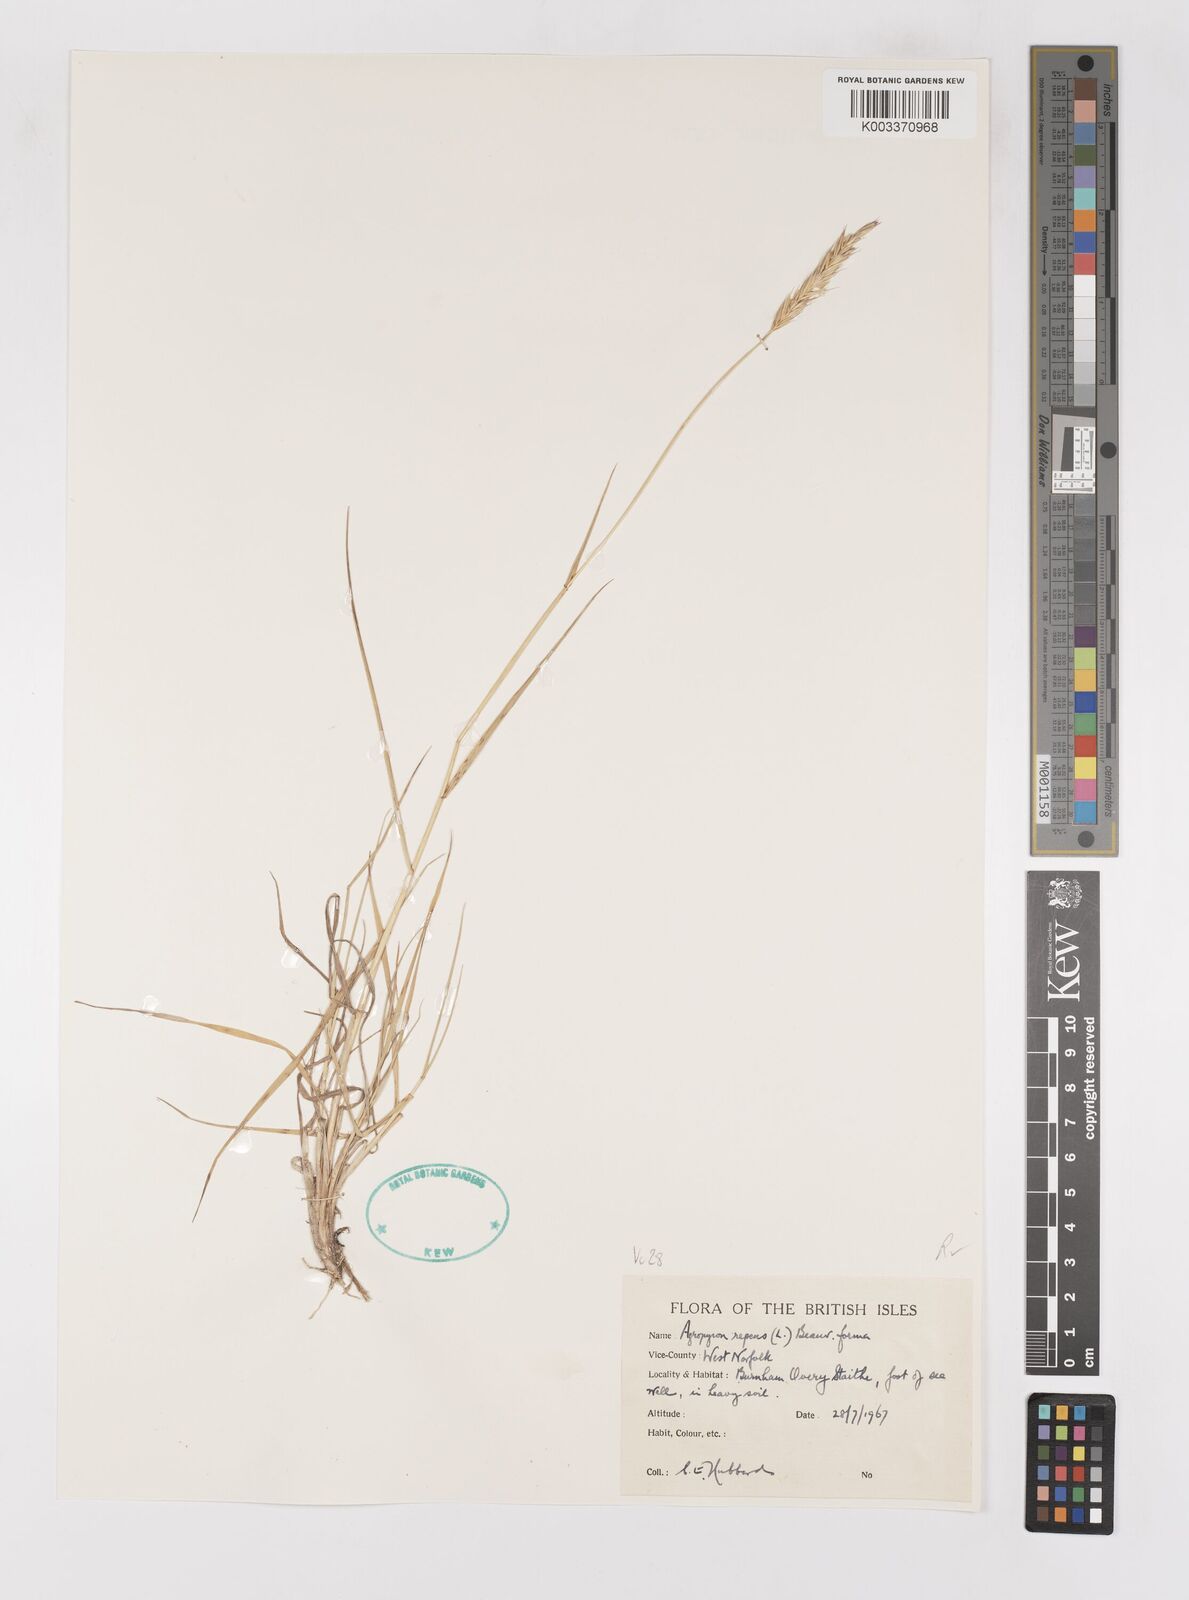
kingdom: Plantae
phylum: Tracheophyta
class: Liliopsida
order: Poales
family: Poaceae
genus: Elymus
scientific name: Elymus repens
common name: Quackgrass
